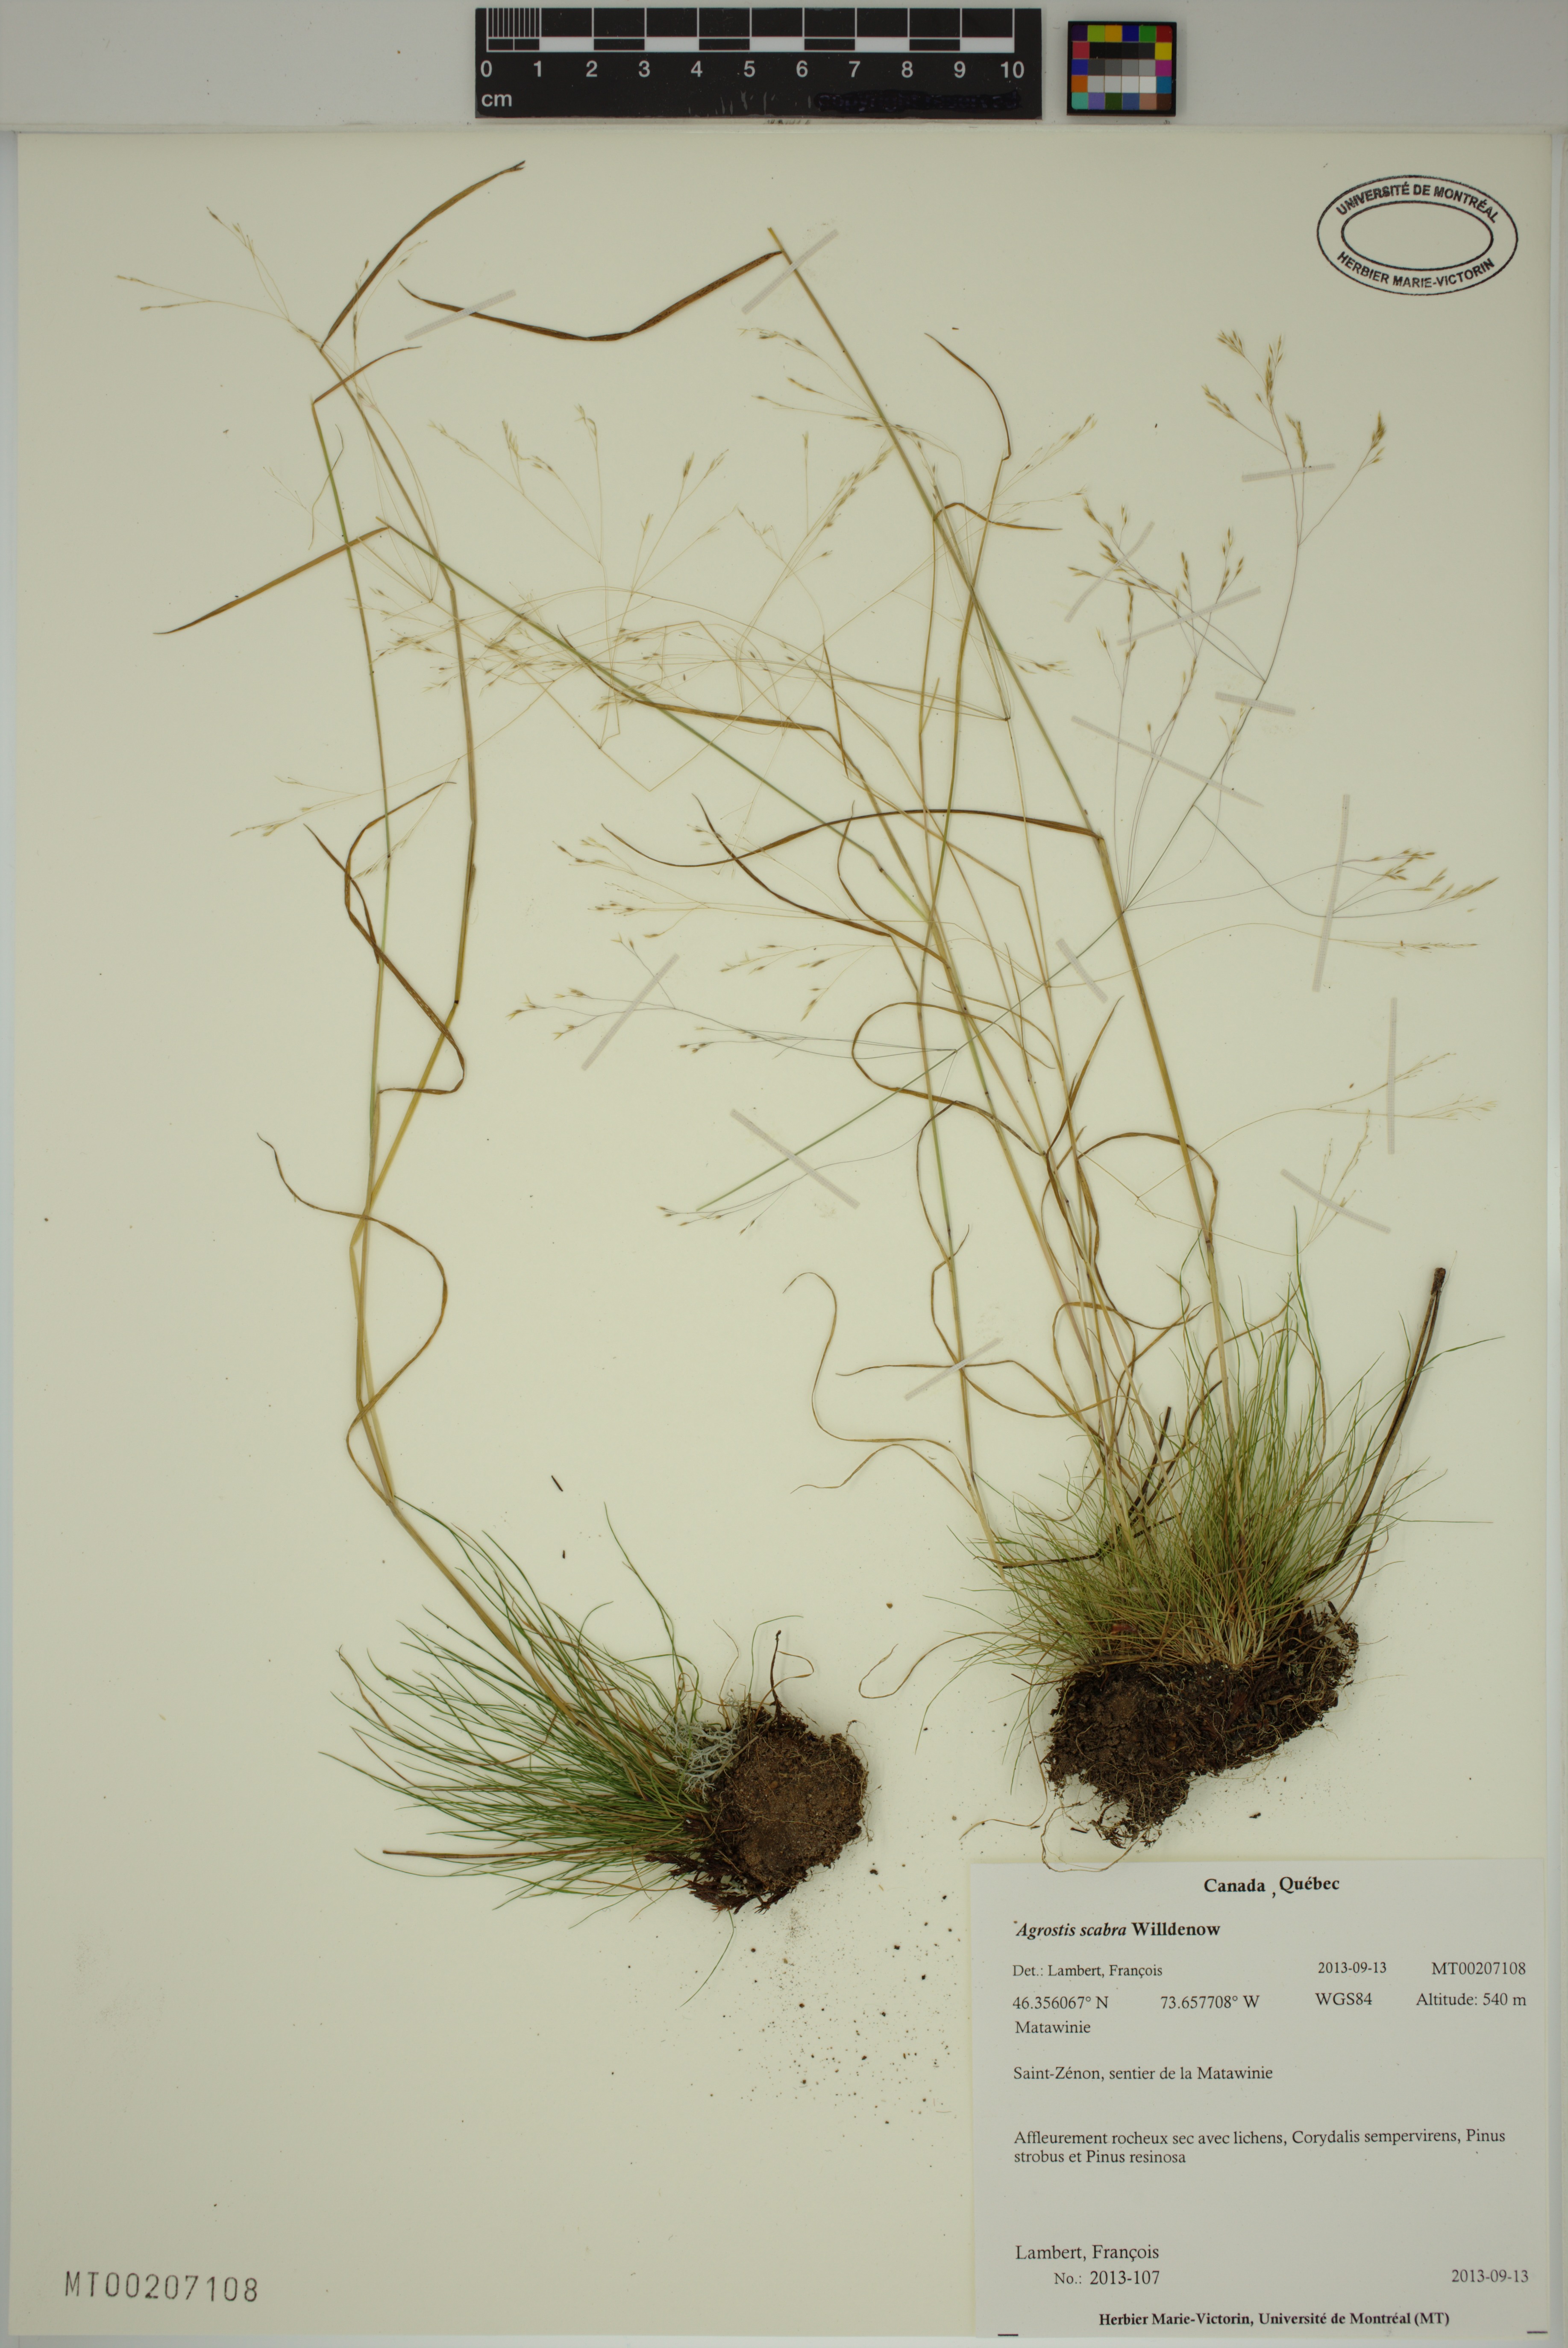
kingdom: Plantae
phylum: Tracheophyta
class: Liliopsida
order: Poales
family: Poaceae
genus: Agrostis
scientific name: Agrostis scabra
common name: Rough bent
